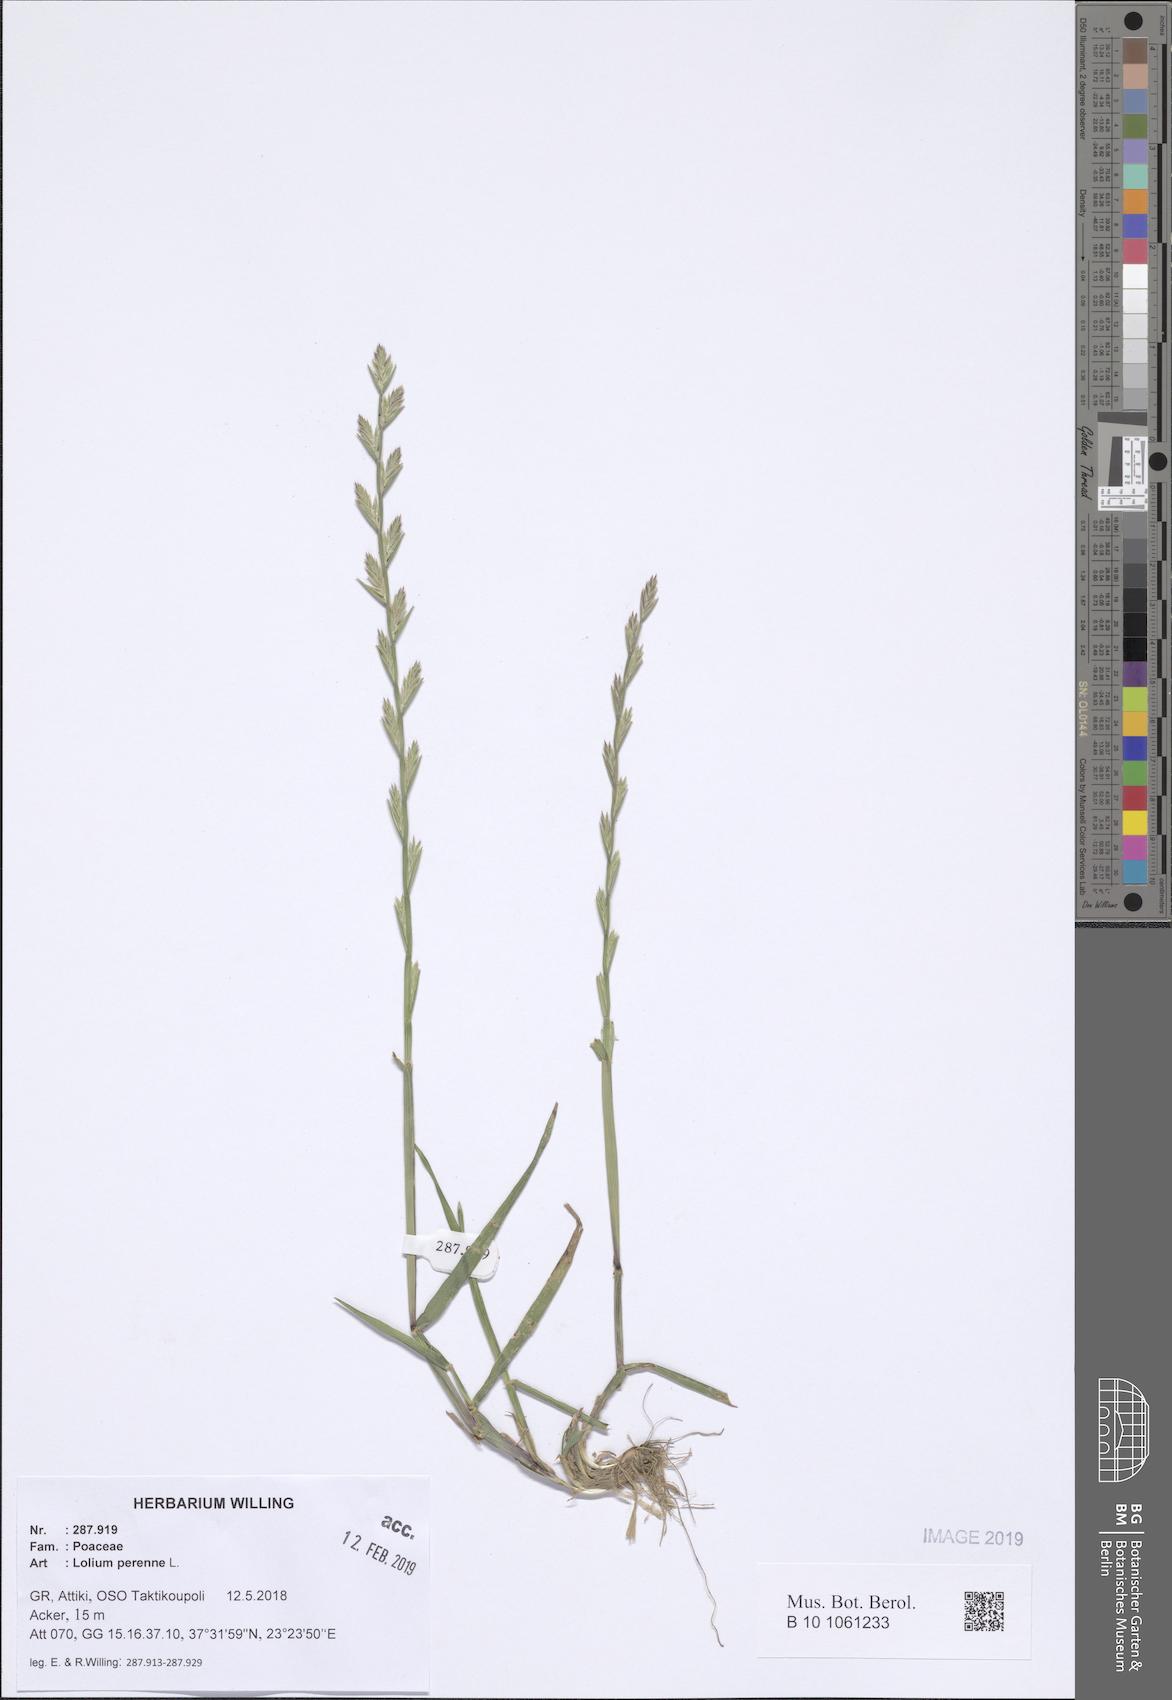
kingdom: Plantae
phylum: Tracheophyta
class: Liliopsida
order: Poales
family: Poaceae
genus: Lolium
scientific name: Lolium perenne
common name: Perennial ryegrass
